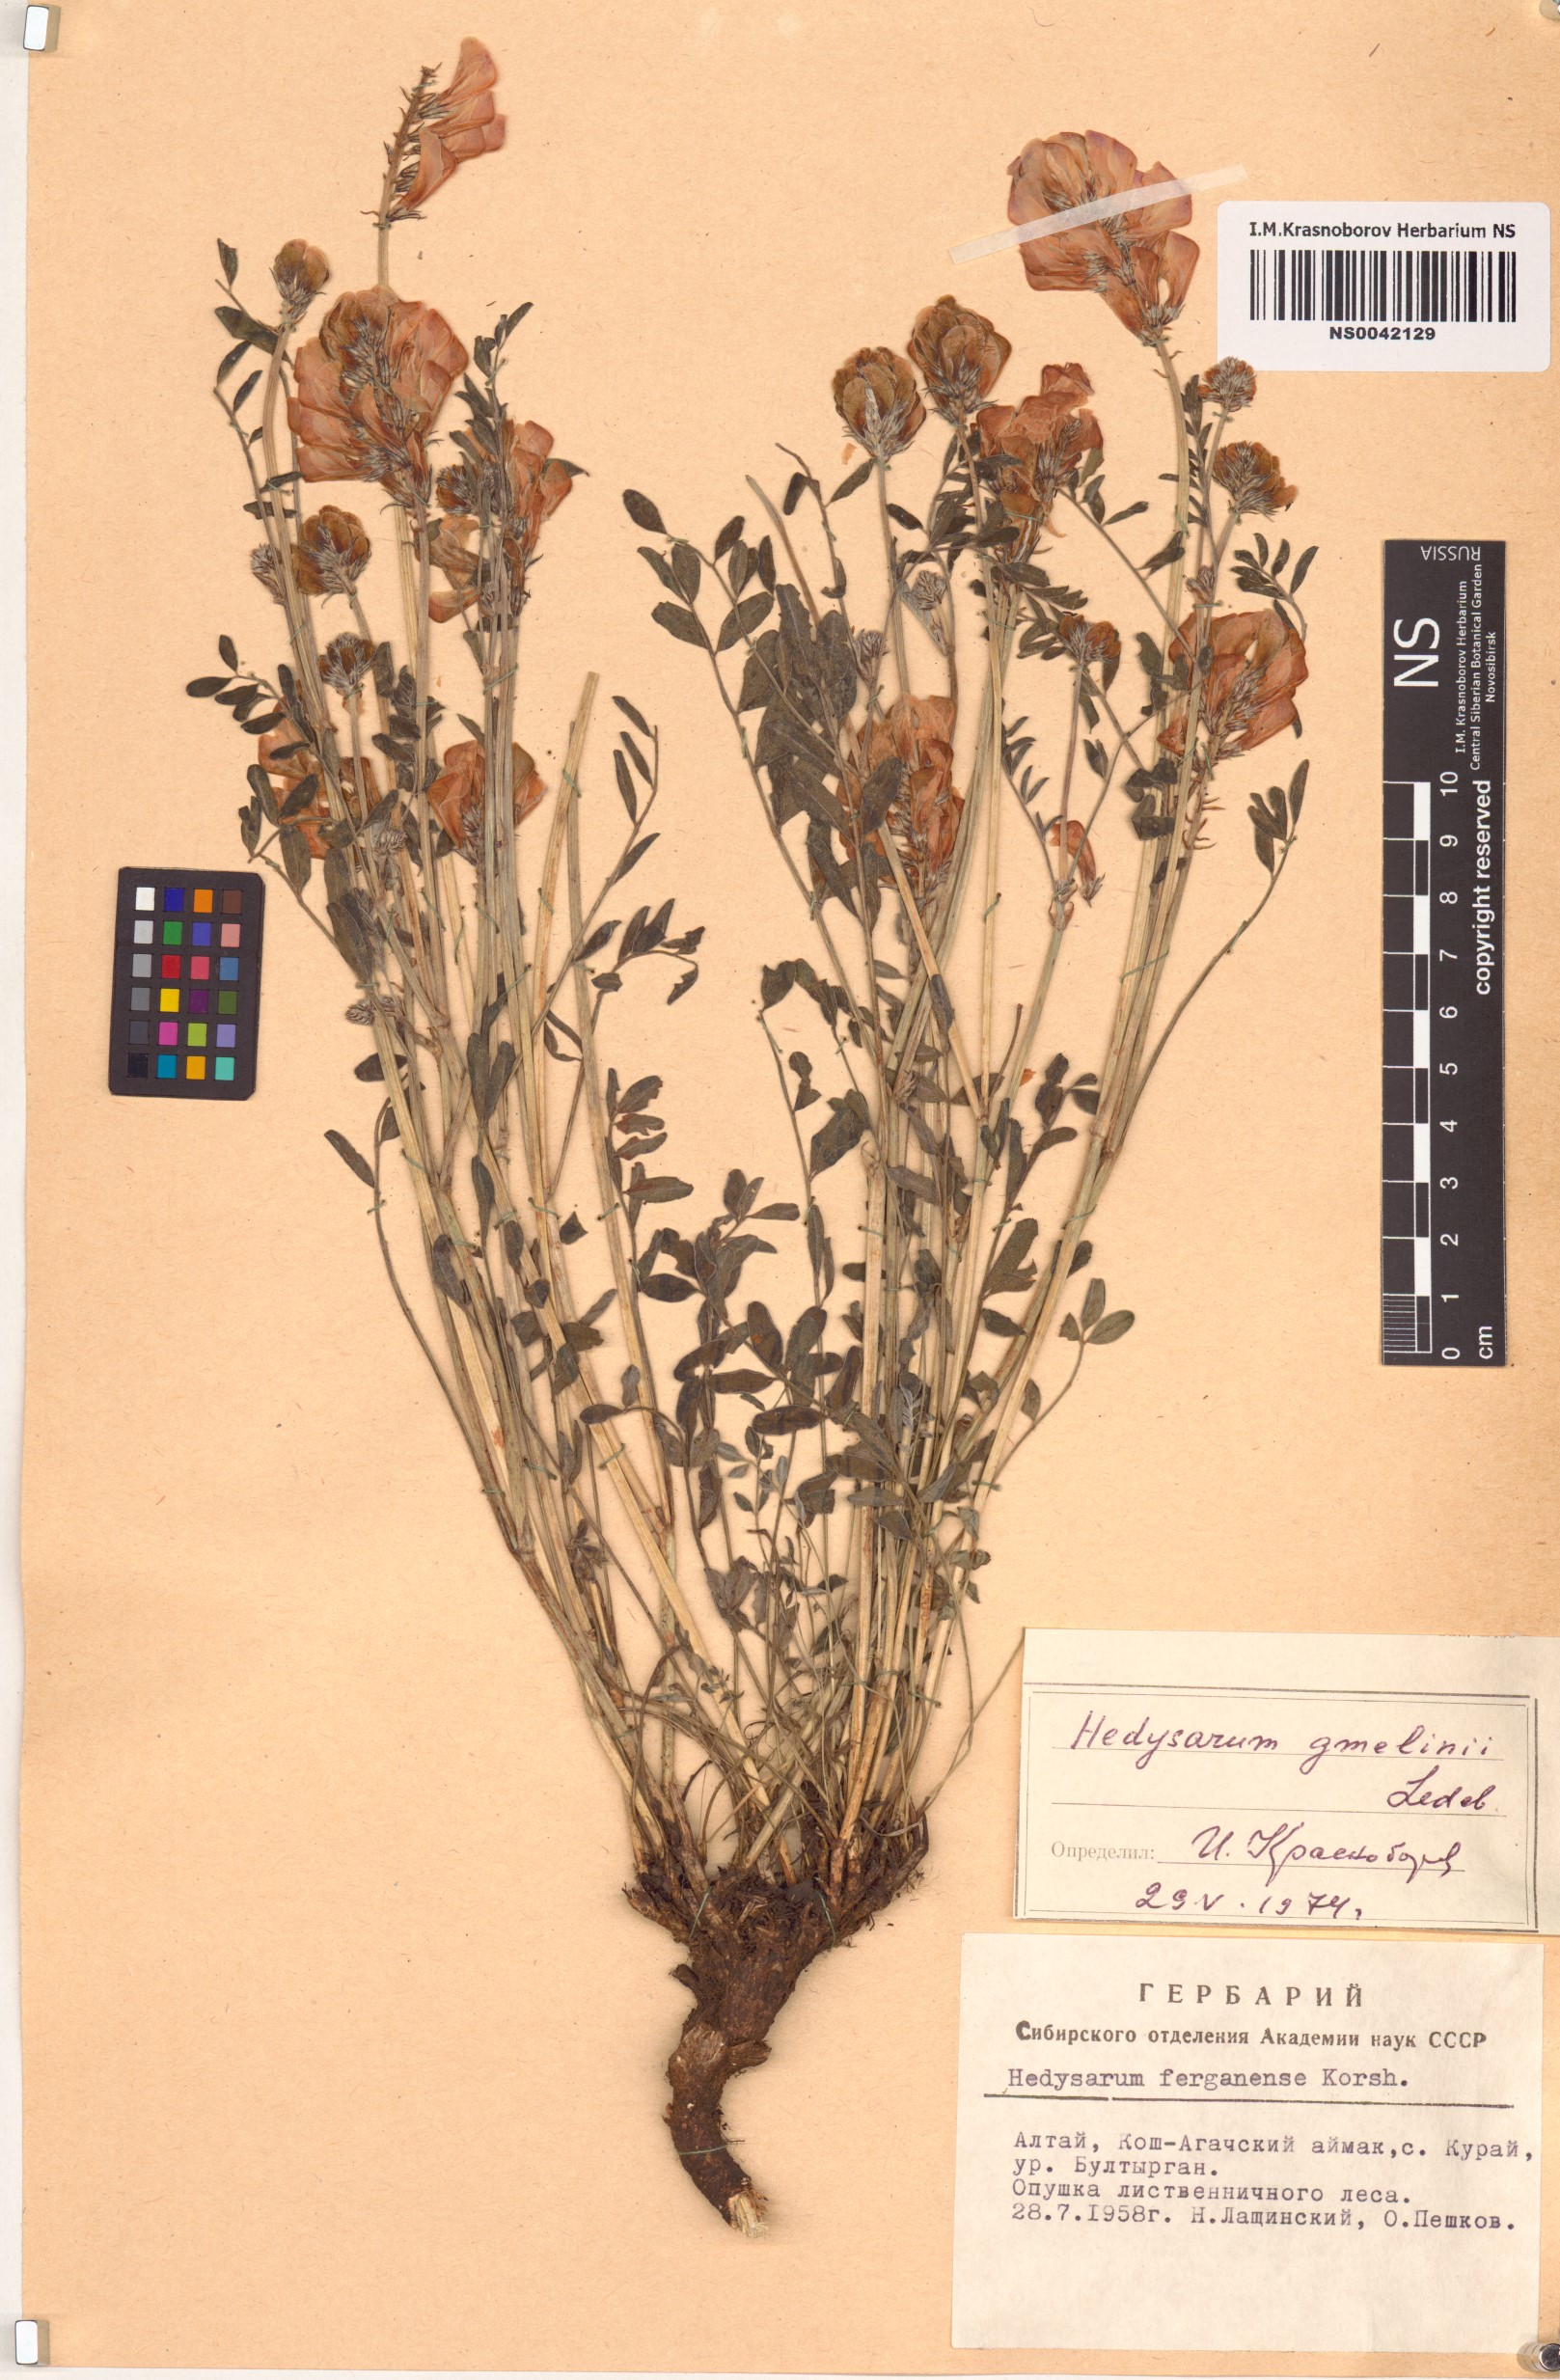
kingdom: Plantae
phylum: Tracheophyta
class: Magnoliopsida
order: Fabales
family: Fabaceae
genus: Hedysarum
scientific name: Hedysarum gmelinii
